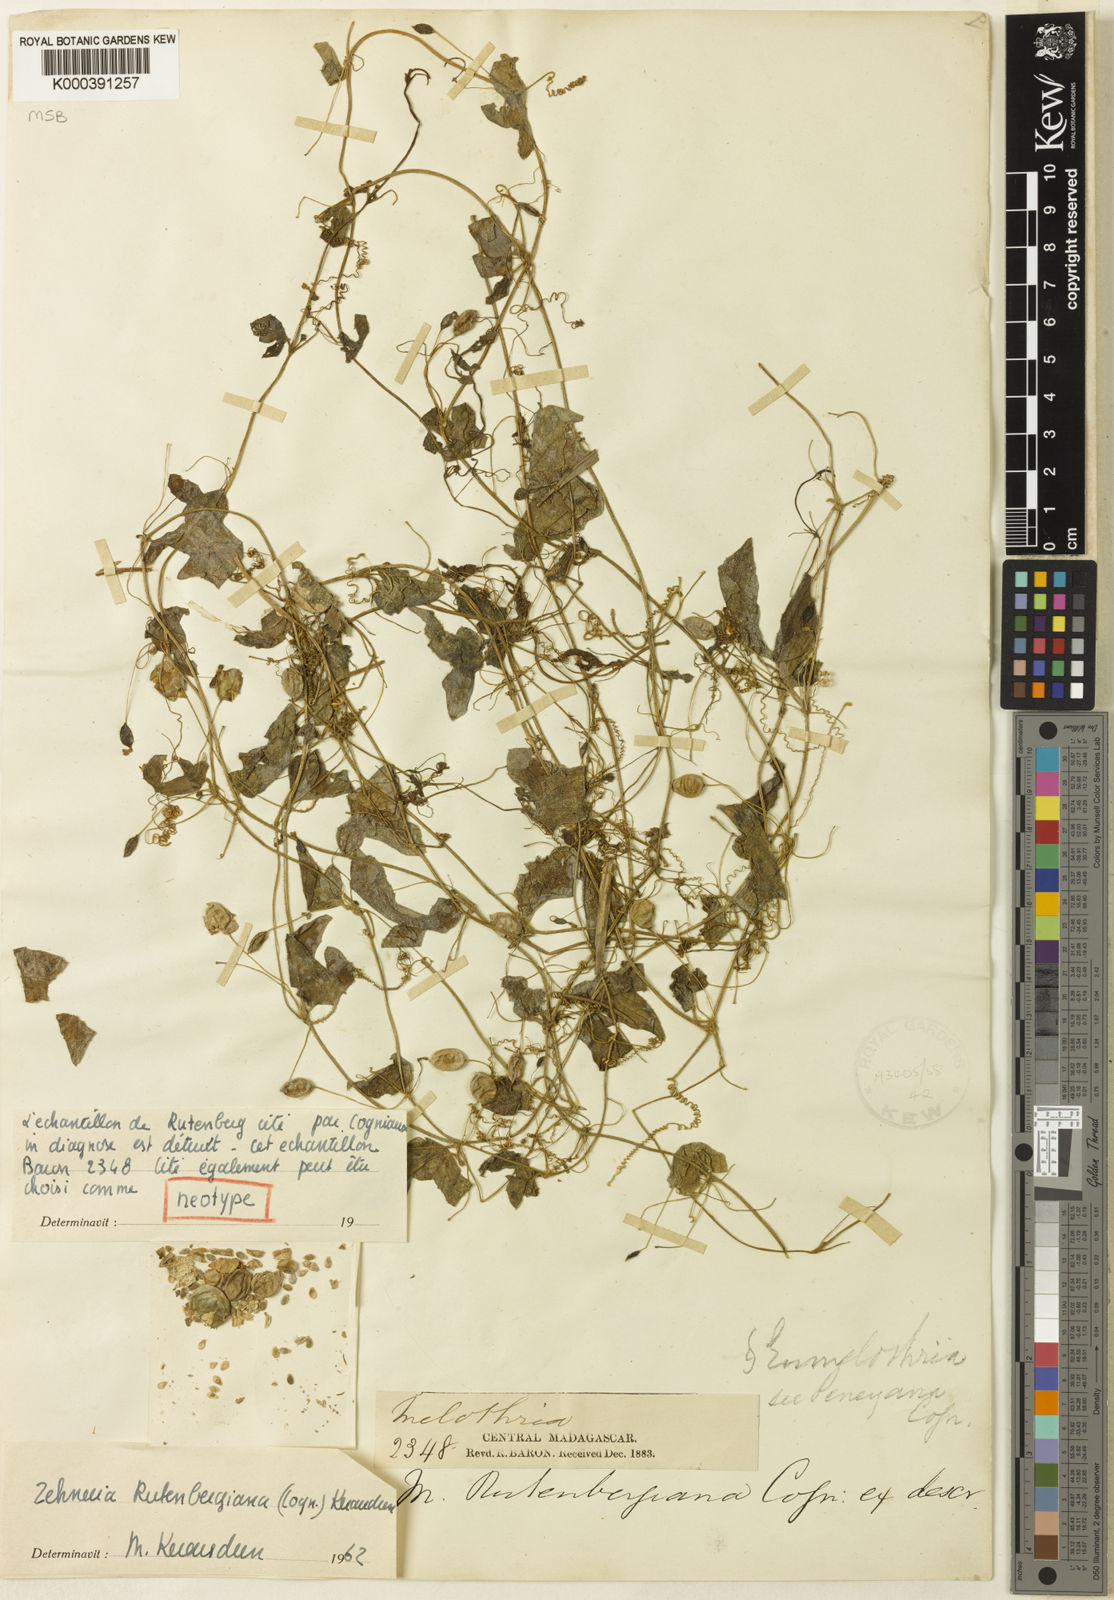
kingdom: Plantae
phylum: Tracheophyta
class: Magnoliopsida
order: Cucurbitales
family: Cucurbitaceae
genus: Zehneria
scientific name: Zehneria rutenbergiana
